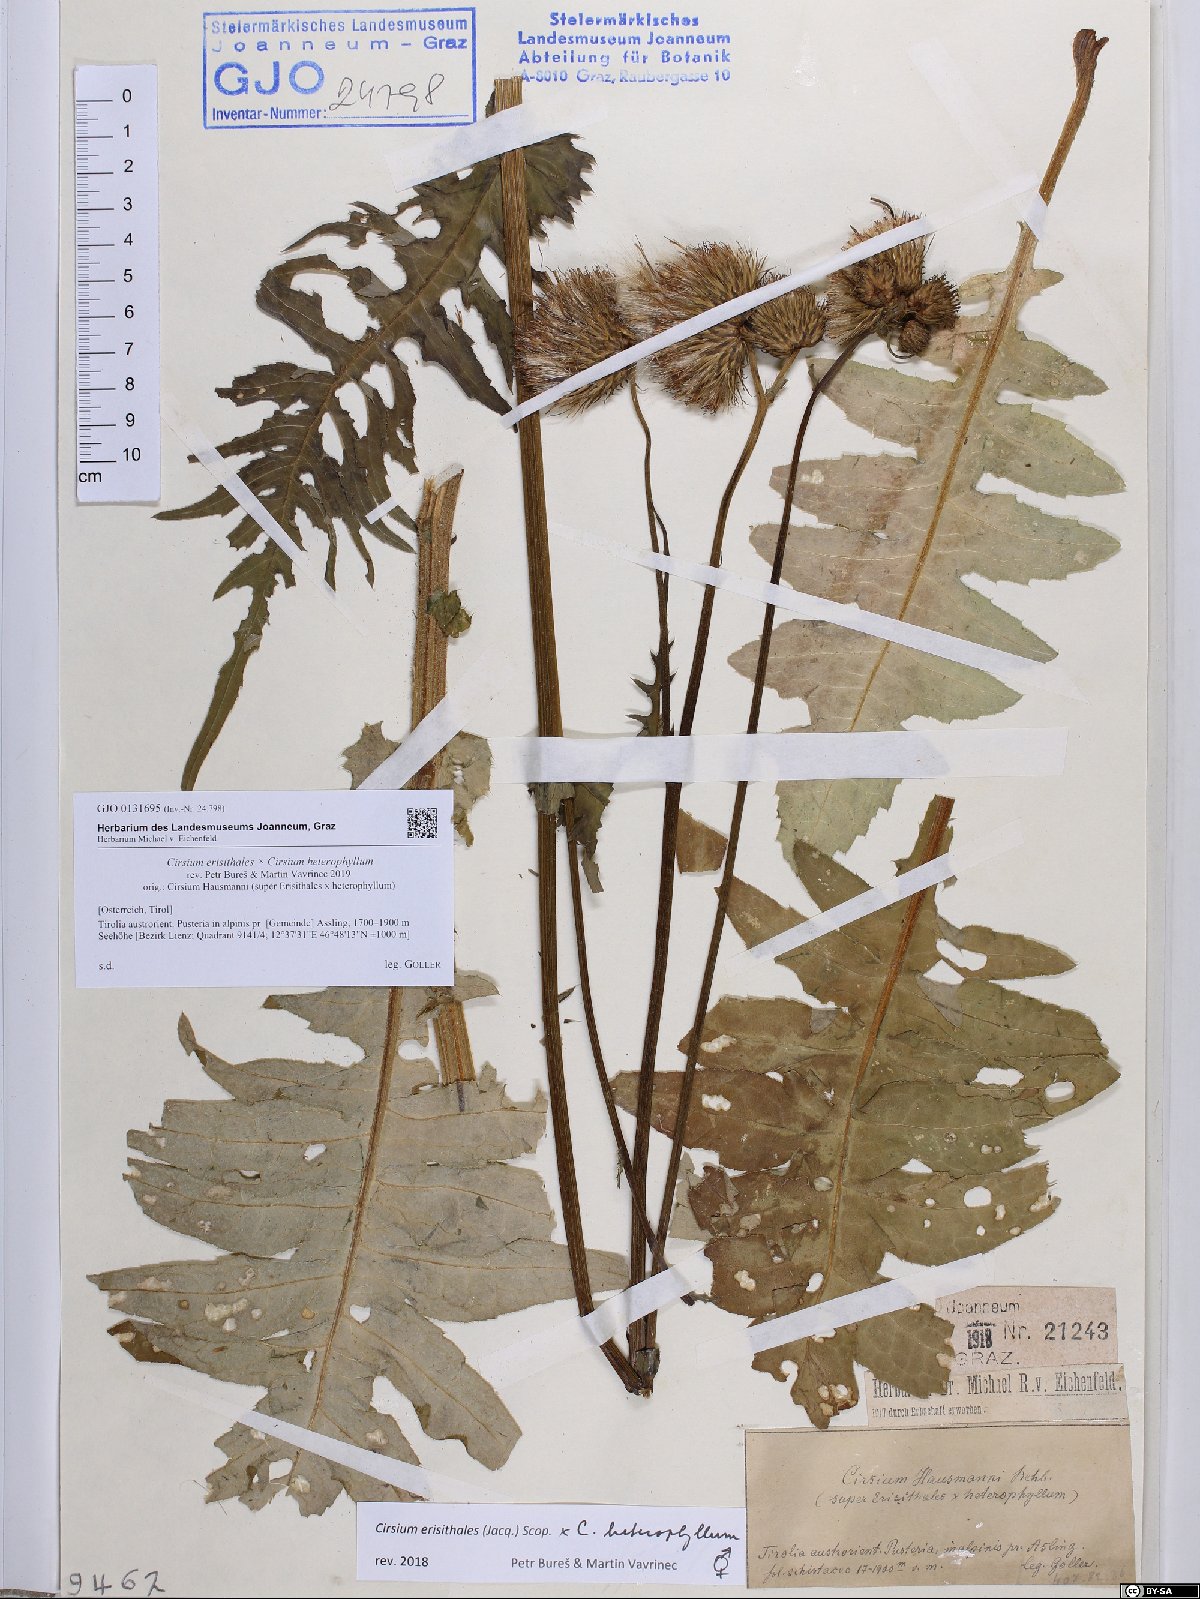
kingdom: Plantae
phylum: Tracheophyta
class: Magnoliopsida
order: Asterales
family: Asteraceae
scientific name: Asteraceae
